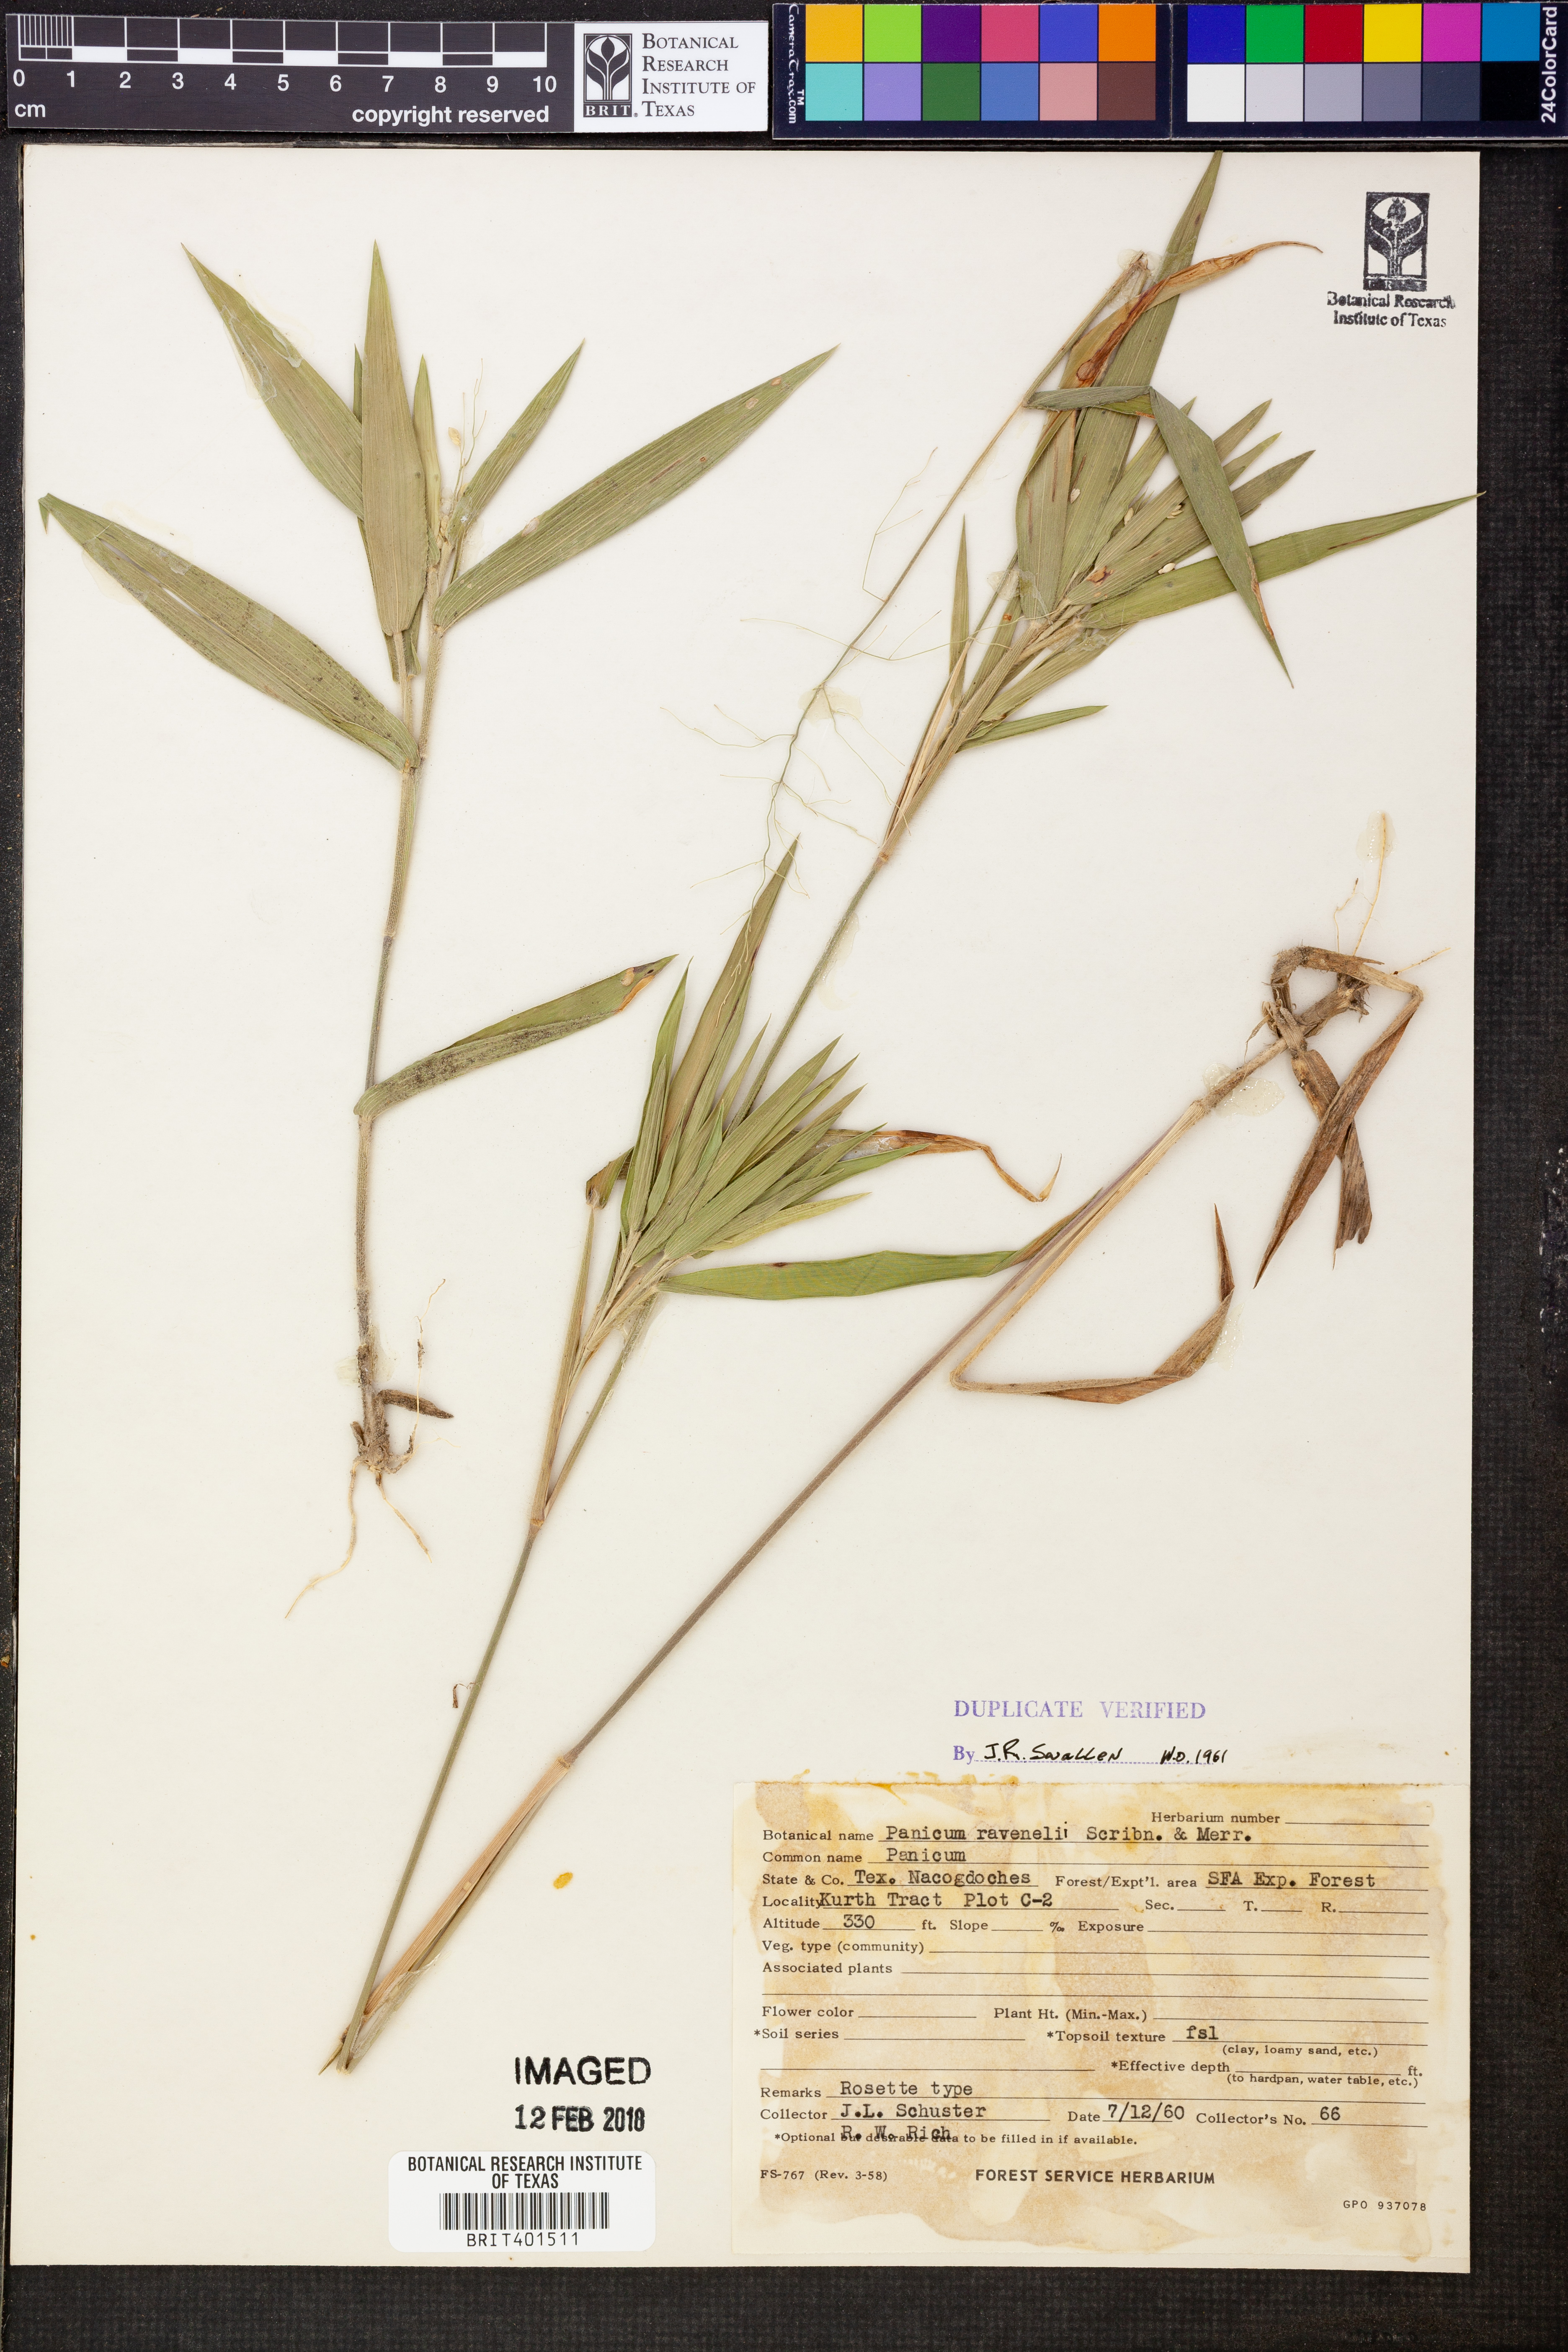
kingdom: Plantae
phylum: Tracheophyta
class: Liliopsida
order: Poales
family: Poaceae
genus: Dichanthelium
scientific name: Dichanthelium ravenelii
